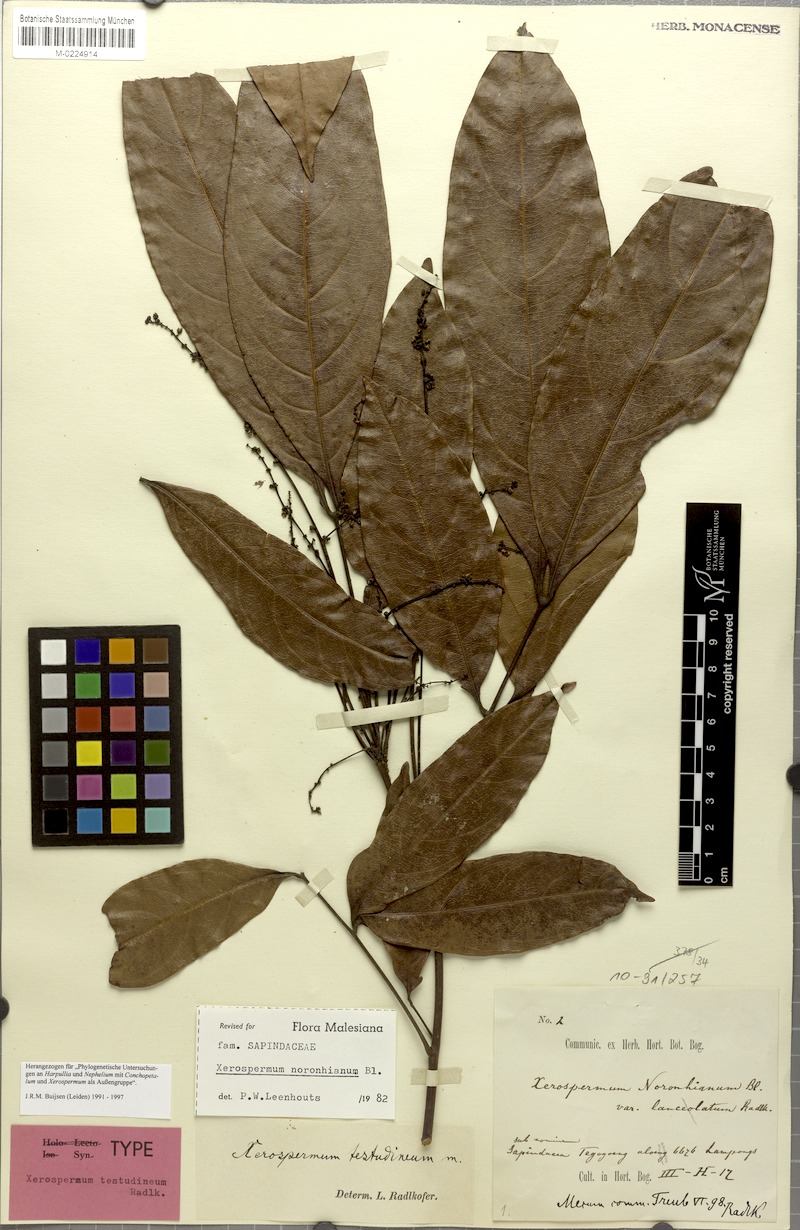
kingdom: Plantae
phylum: Tracheophyta
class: Magnoliopsida
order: Sapindales
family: Sapindaceae
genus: Xerospermum
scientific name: Xerospermum noronhianum
